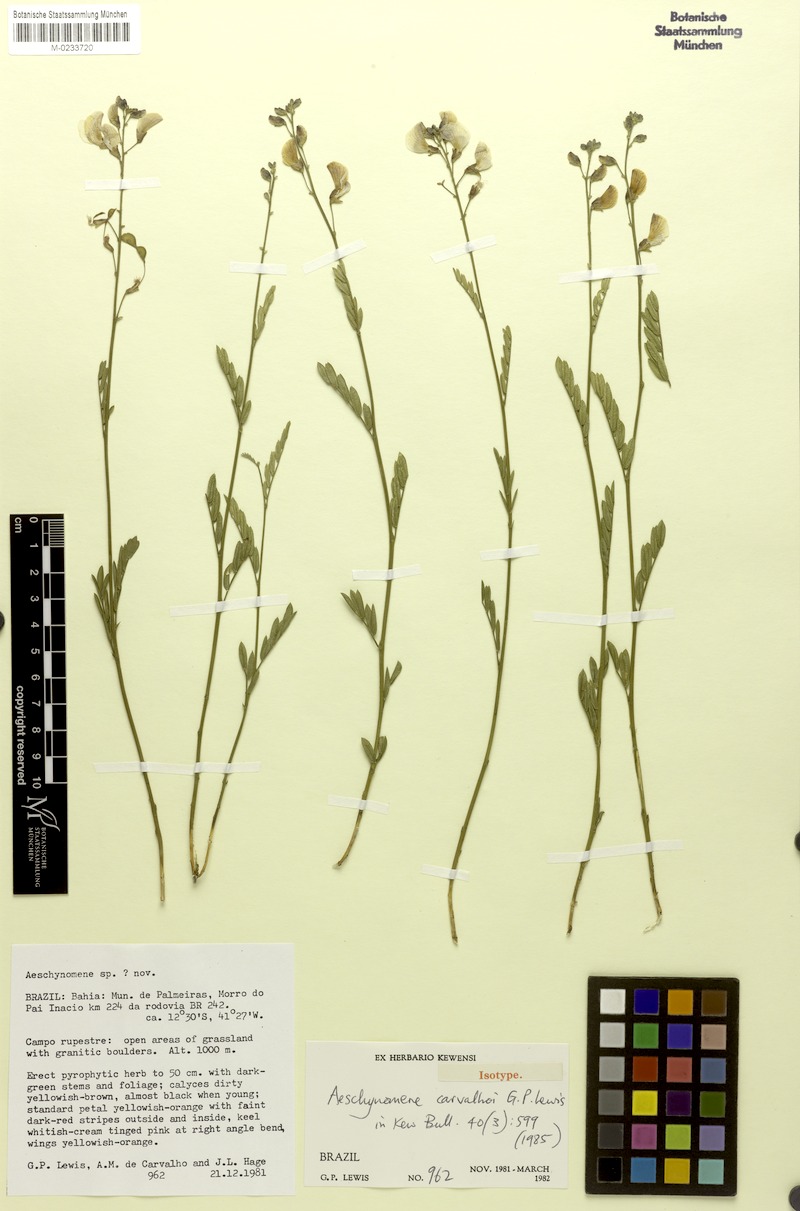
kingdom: Plantae
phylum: Tracheophyta
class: Magnoliopsida
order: Fabales
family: Fabaceae
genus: Ctenodon
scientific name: Ctenodon carvalhoi
